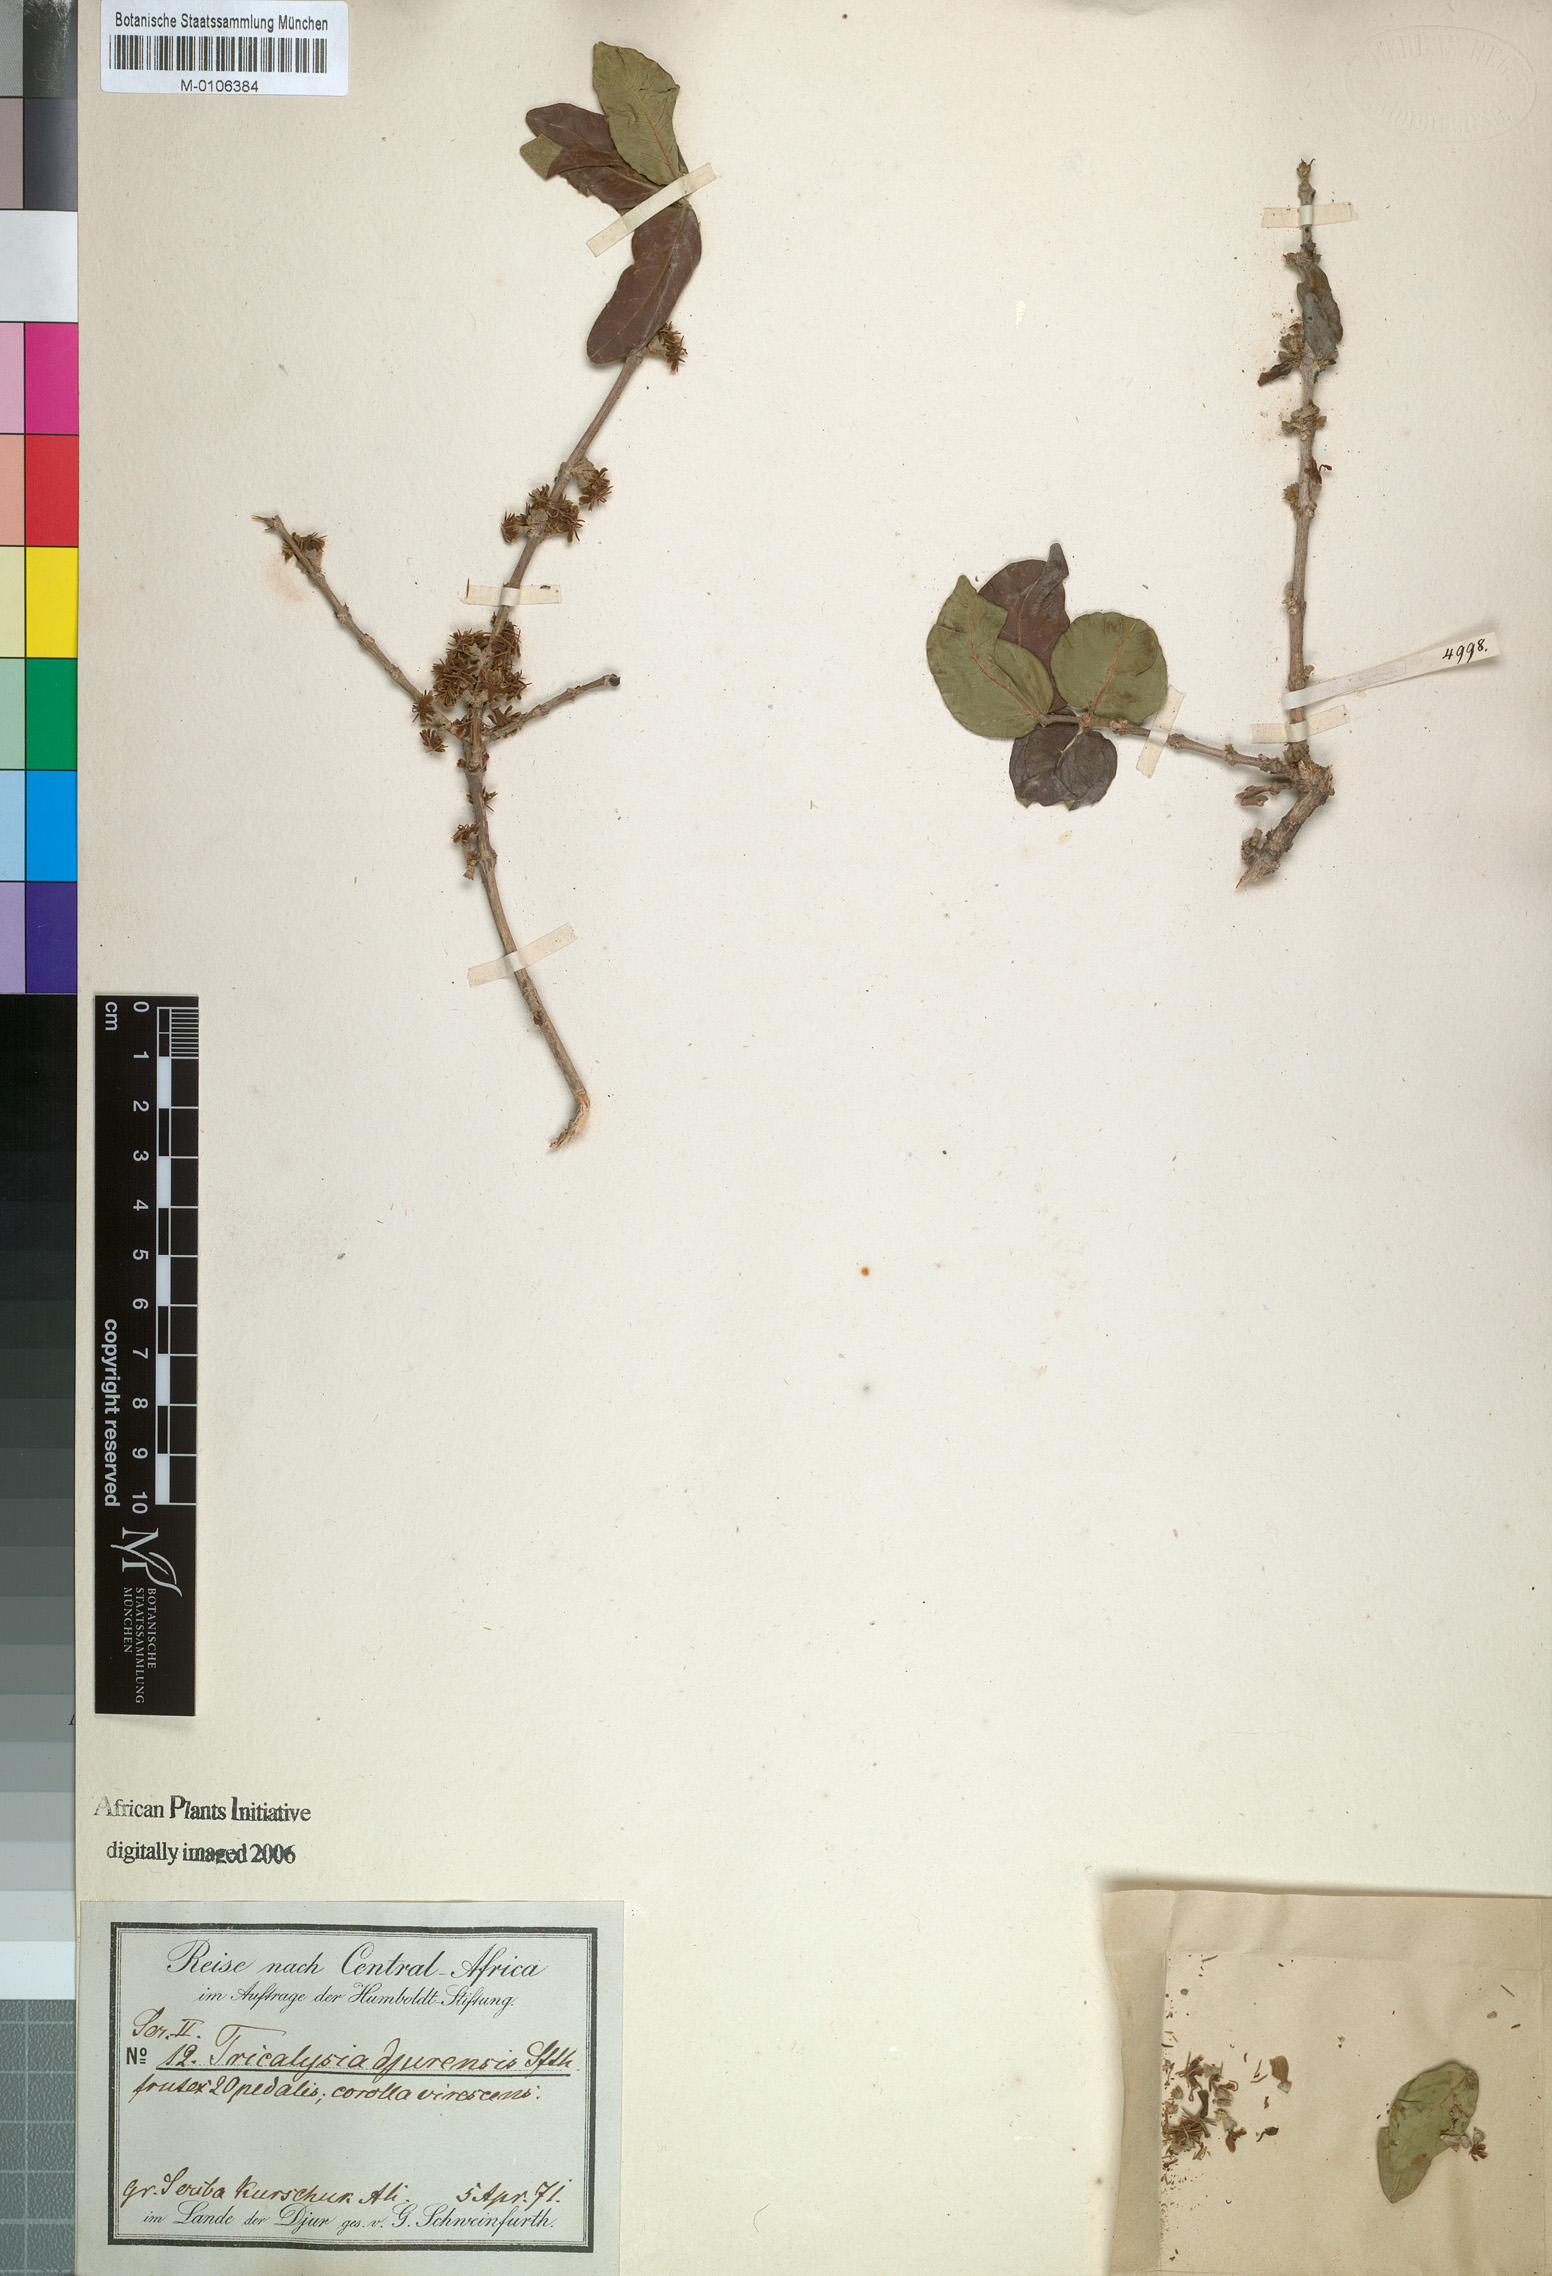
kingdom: Plantae
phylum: Tracheophyta
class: Magnoliopsida
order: Gentianales
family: Rubiaceae
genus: Tricalysia
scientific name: Tricalysia niamniamensis
